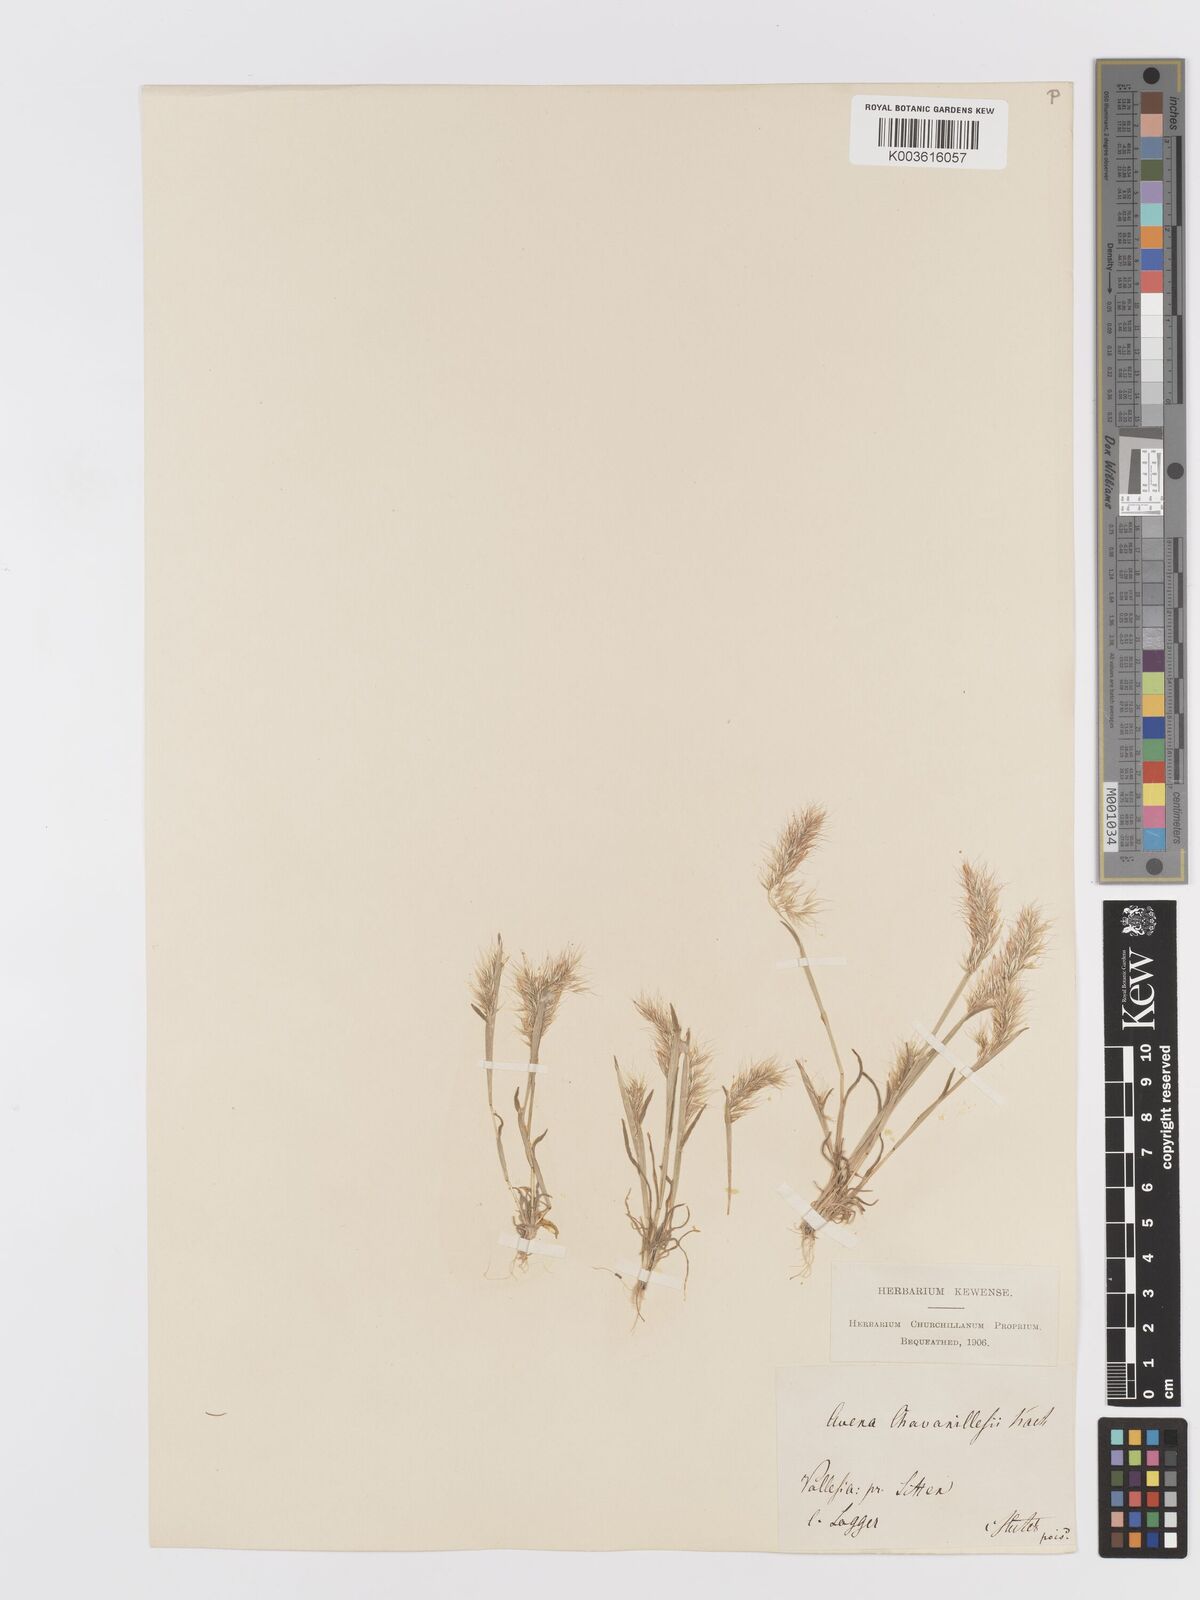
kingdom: Plantae
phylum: Tracheophyta
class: Liliopsida
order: Poales
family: Poaceae
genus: Trisetaria
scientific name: Trisetaria loeflingiana
